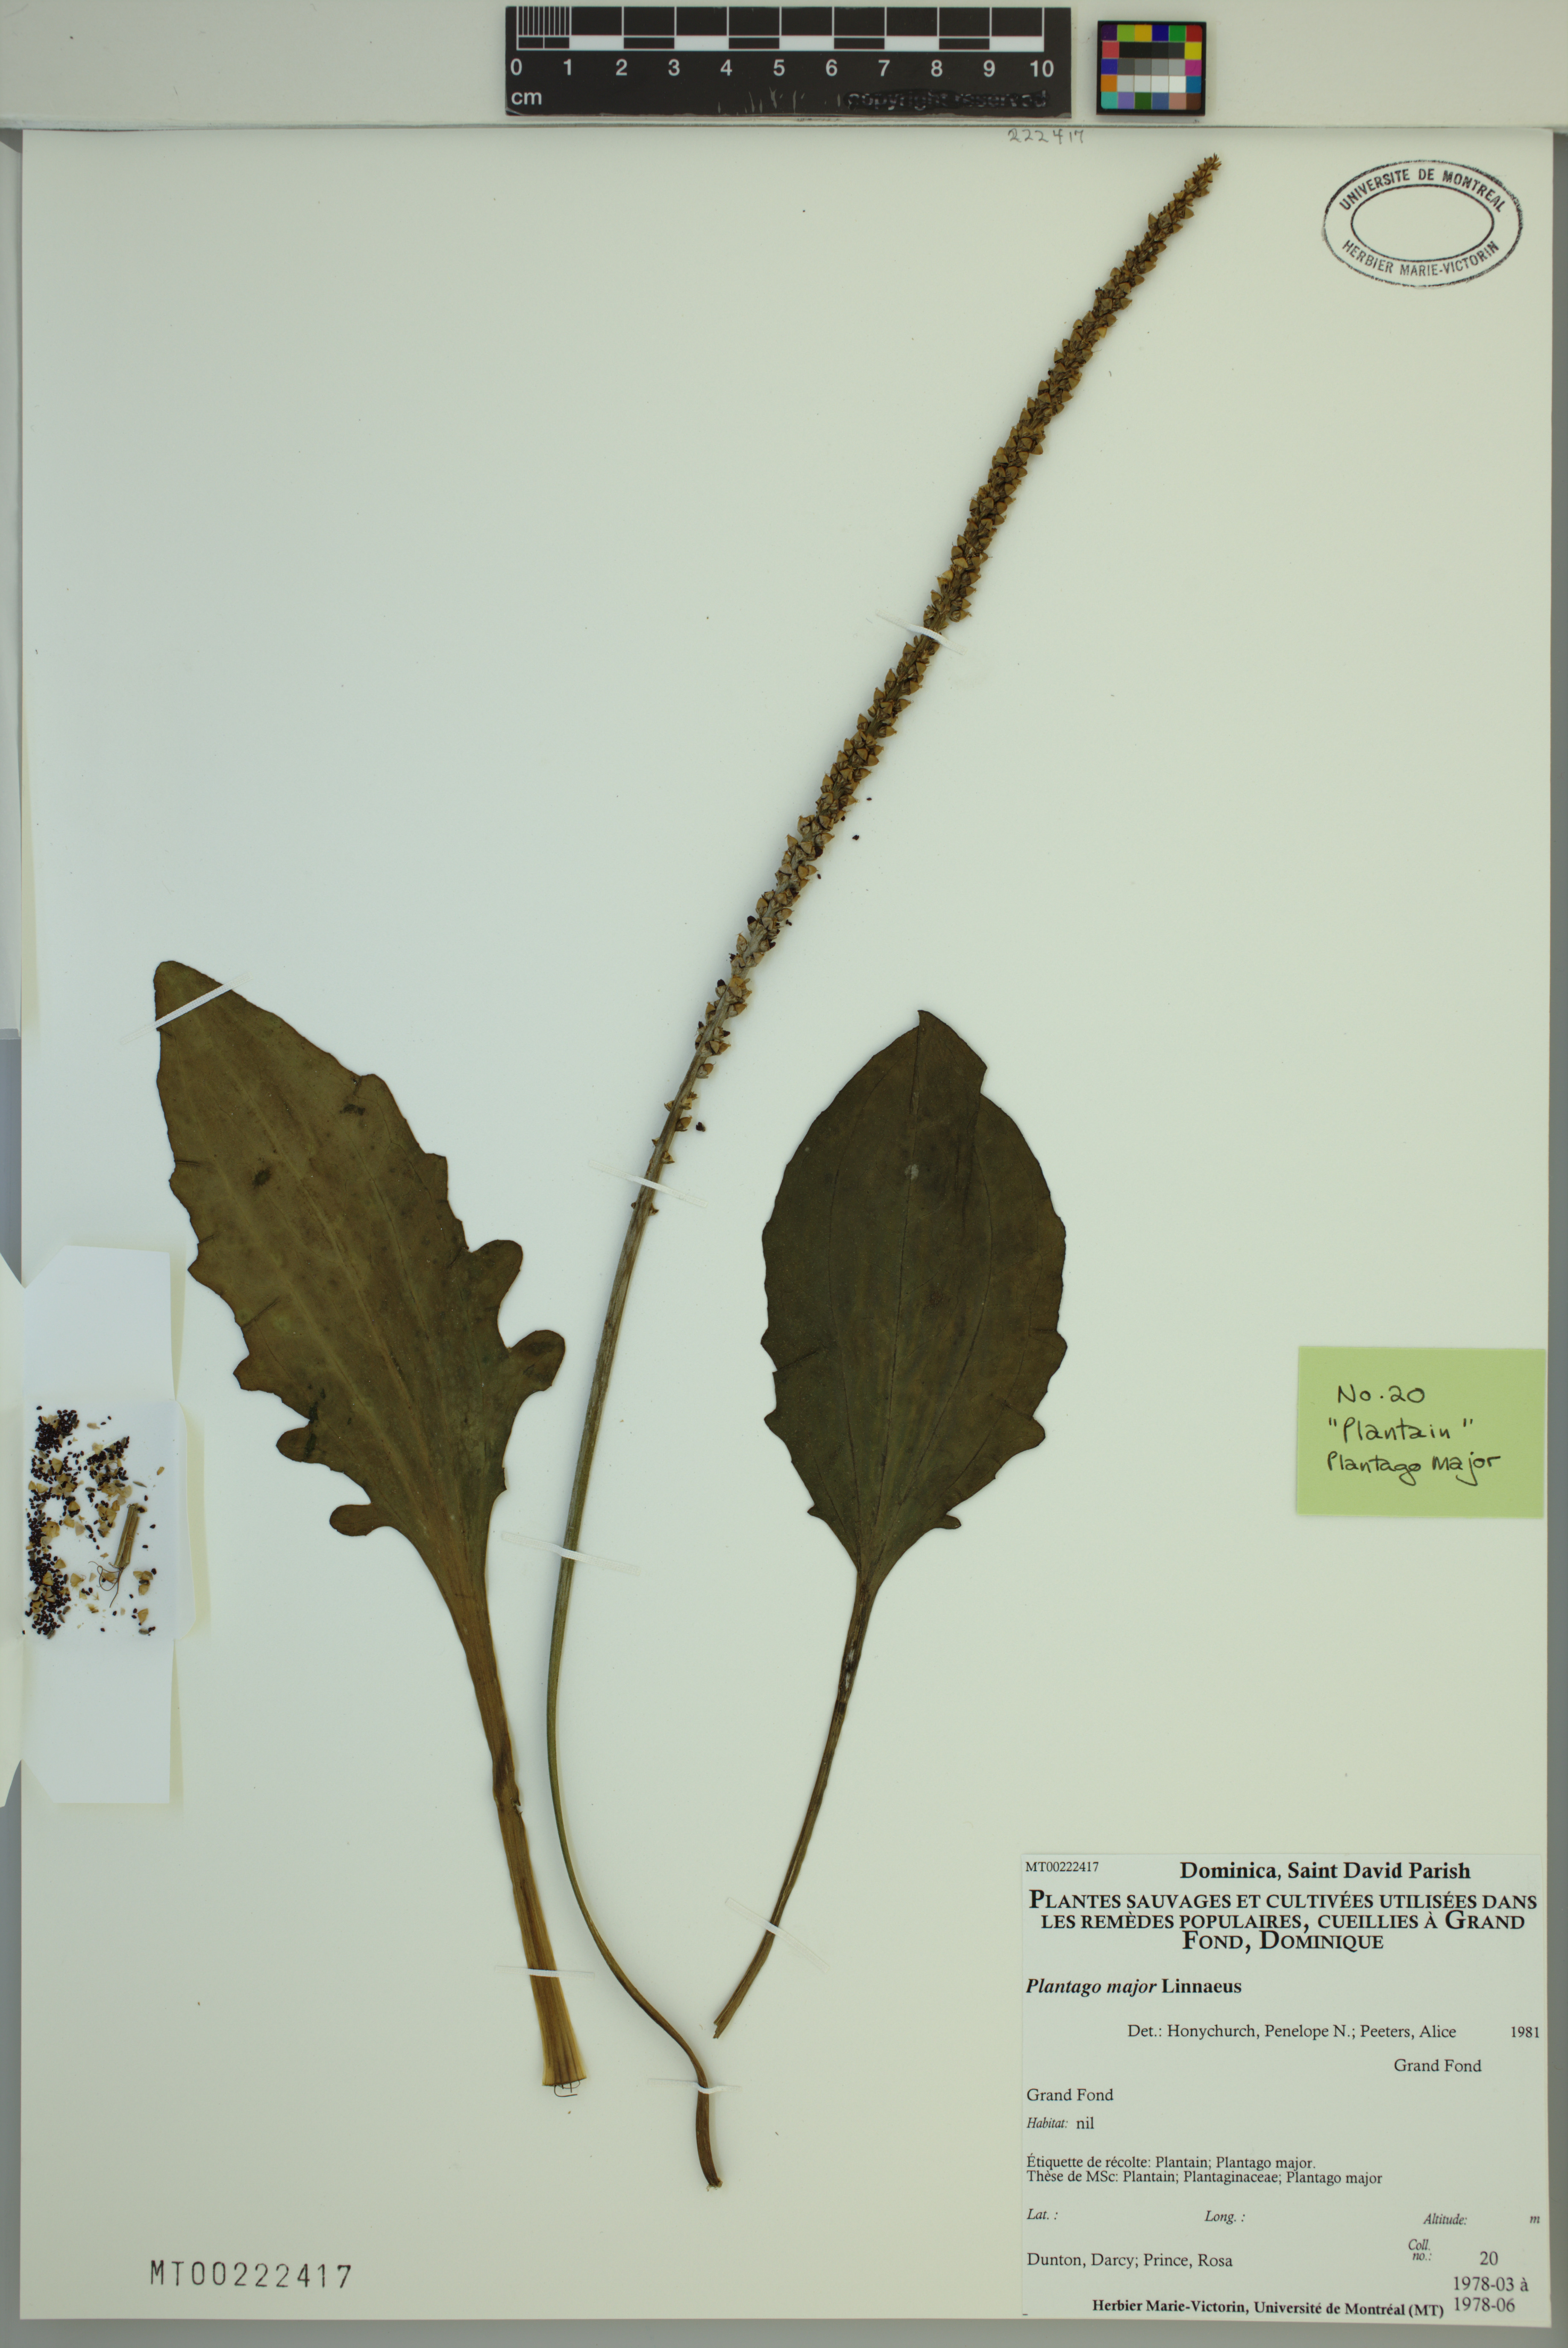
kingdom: Plantae
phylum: Tracheophyta
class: Magnoliopsida
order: Lamiales
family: Plantaginaceae
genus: Plantago
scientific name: Plantago major
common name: Common plantain
